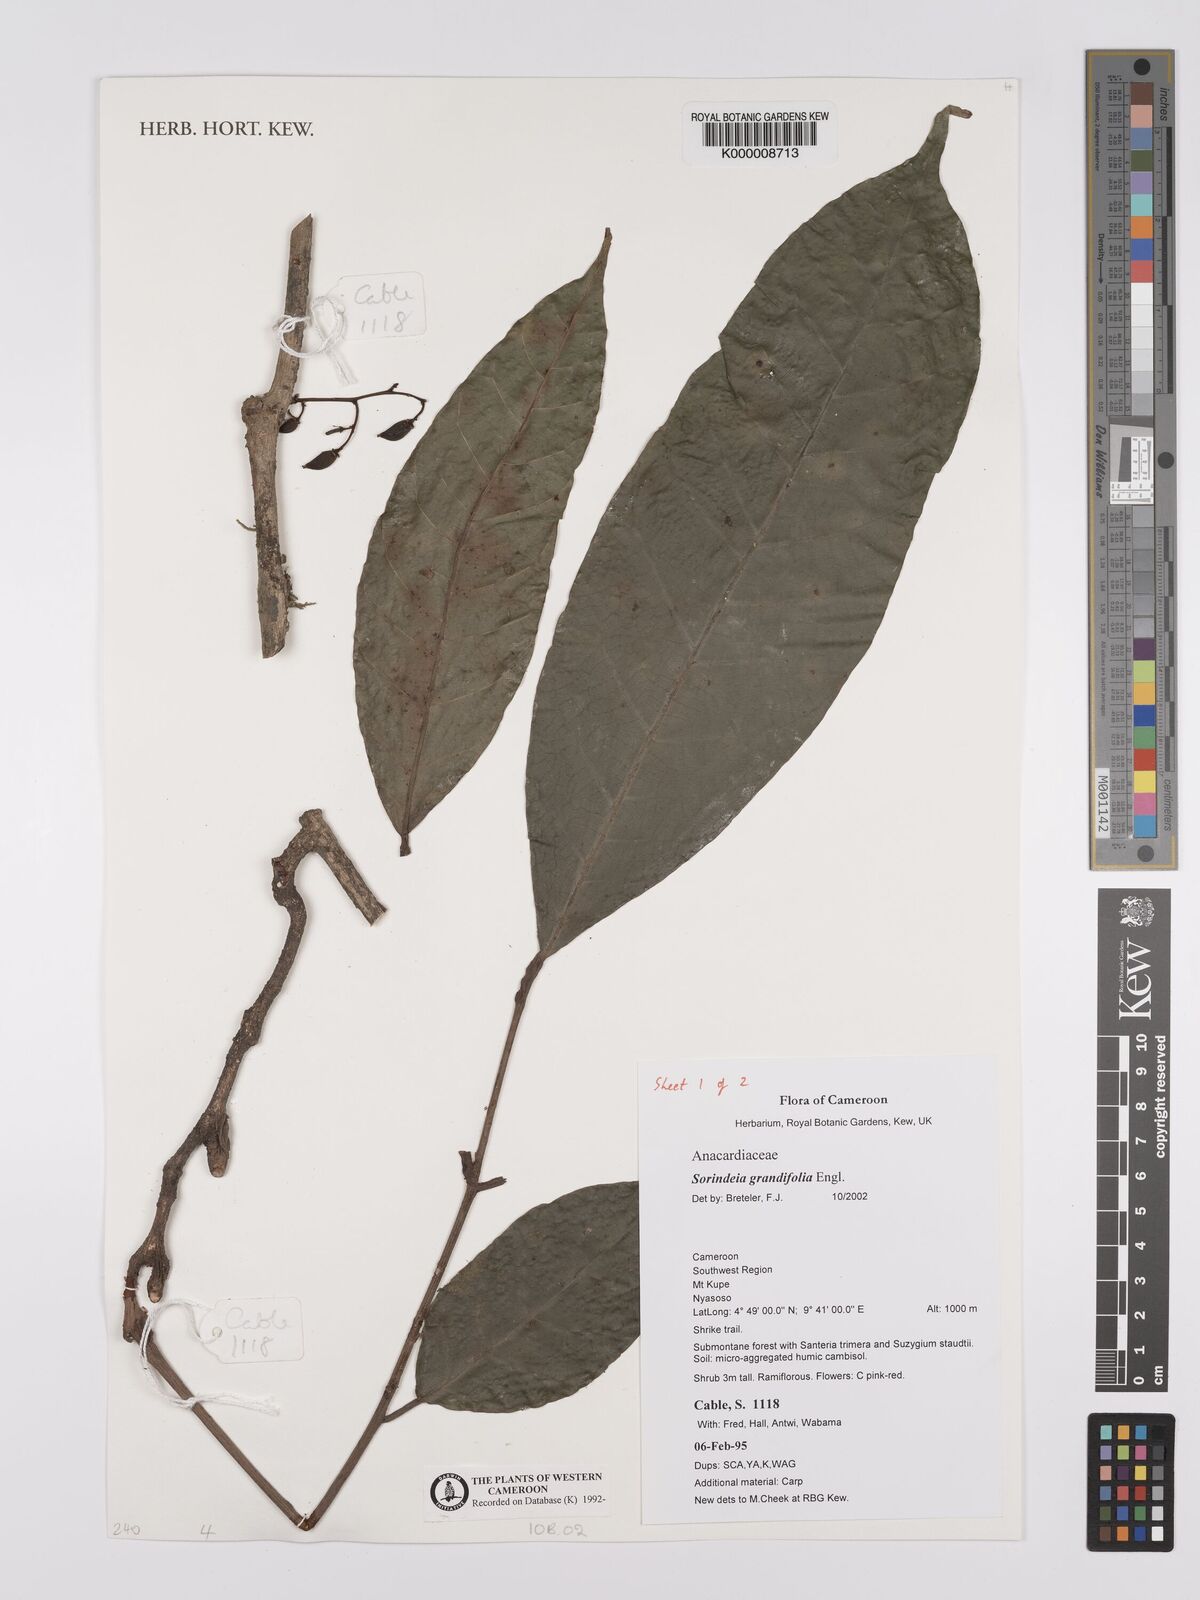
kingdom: Plantae
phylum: Tracheophyta
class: Magnoliopsida
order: Sapindales
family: Anacardiaceae
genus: Sorindeia
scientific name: Sorindeia grandifolia
